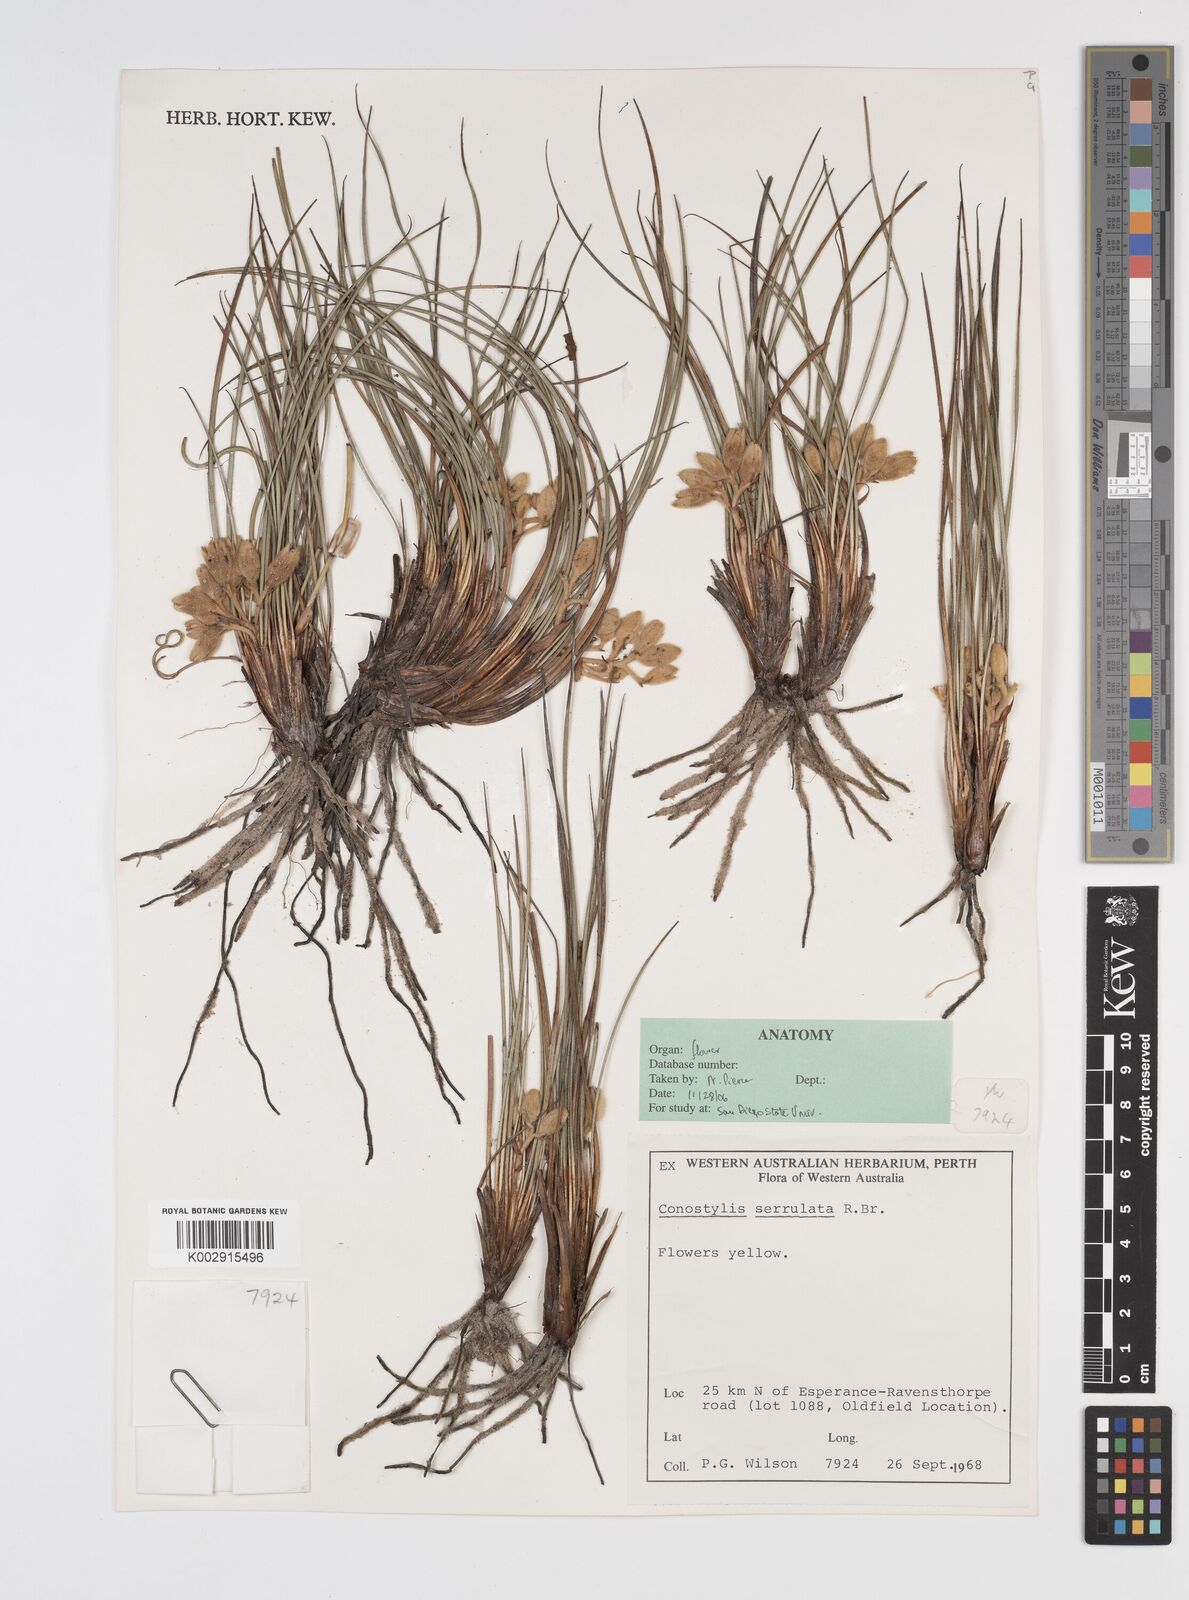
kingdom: Plantae
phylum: Tracheophyta
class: Liliopsida
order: Commelinales
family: Haemodoraceae
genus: Conostylis
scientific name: Conostylis serrulata
